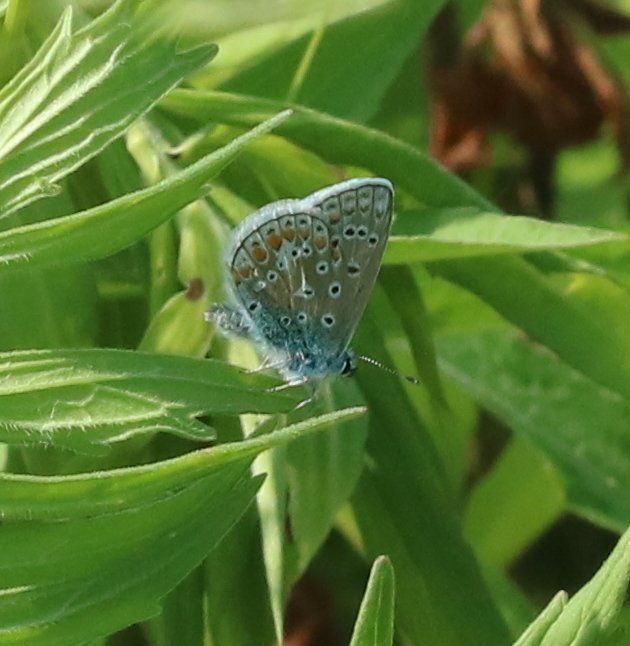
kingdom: Animalia
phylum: Arthropoda
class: Insecta
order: Lepidoptera
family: Lycaenidae
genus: Polyommatus
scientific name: Polyommatus icarus
